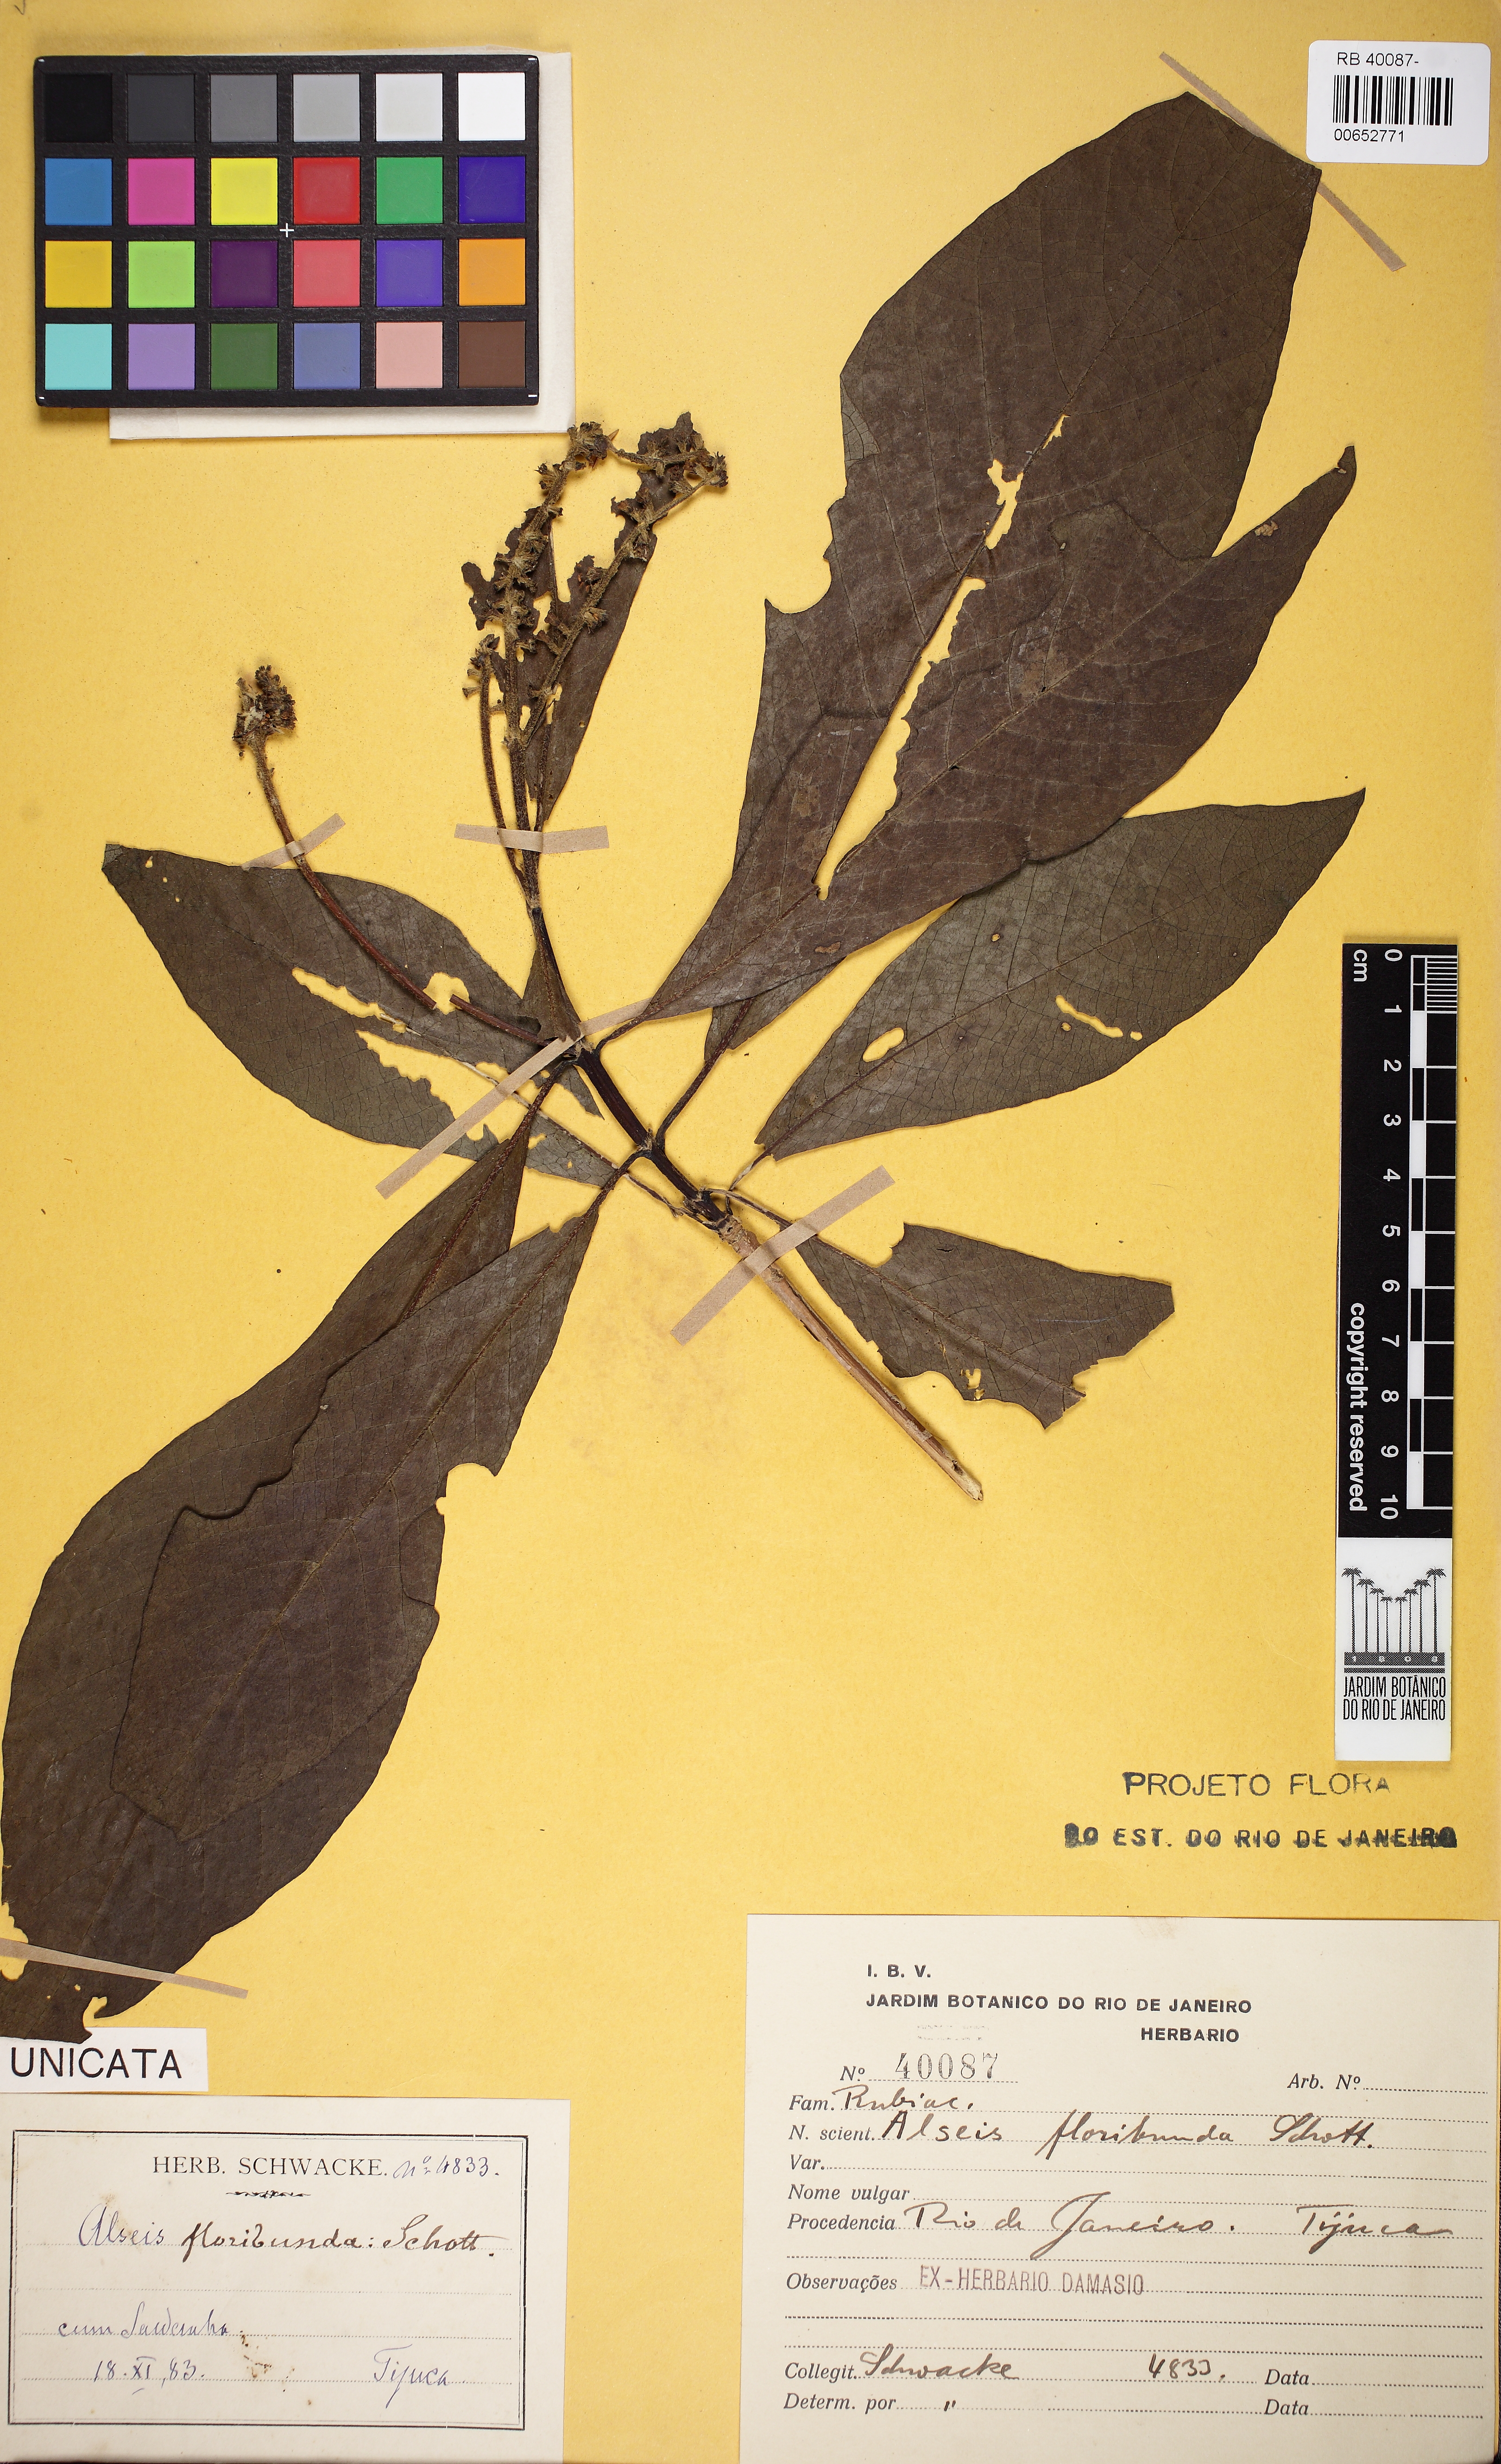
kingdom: Plantae
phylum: Tracheophyta
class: Magnoliopsida
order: Gentianales
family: Rubiaceae
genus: Alseis
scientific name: Alseis floribunda
